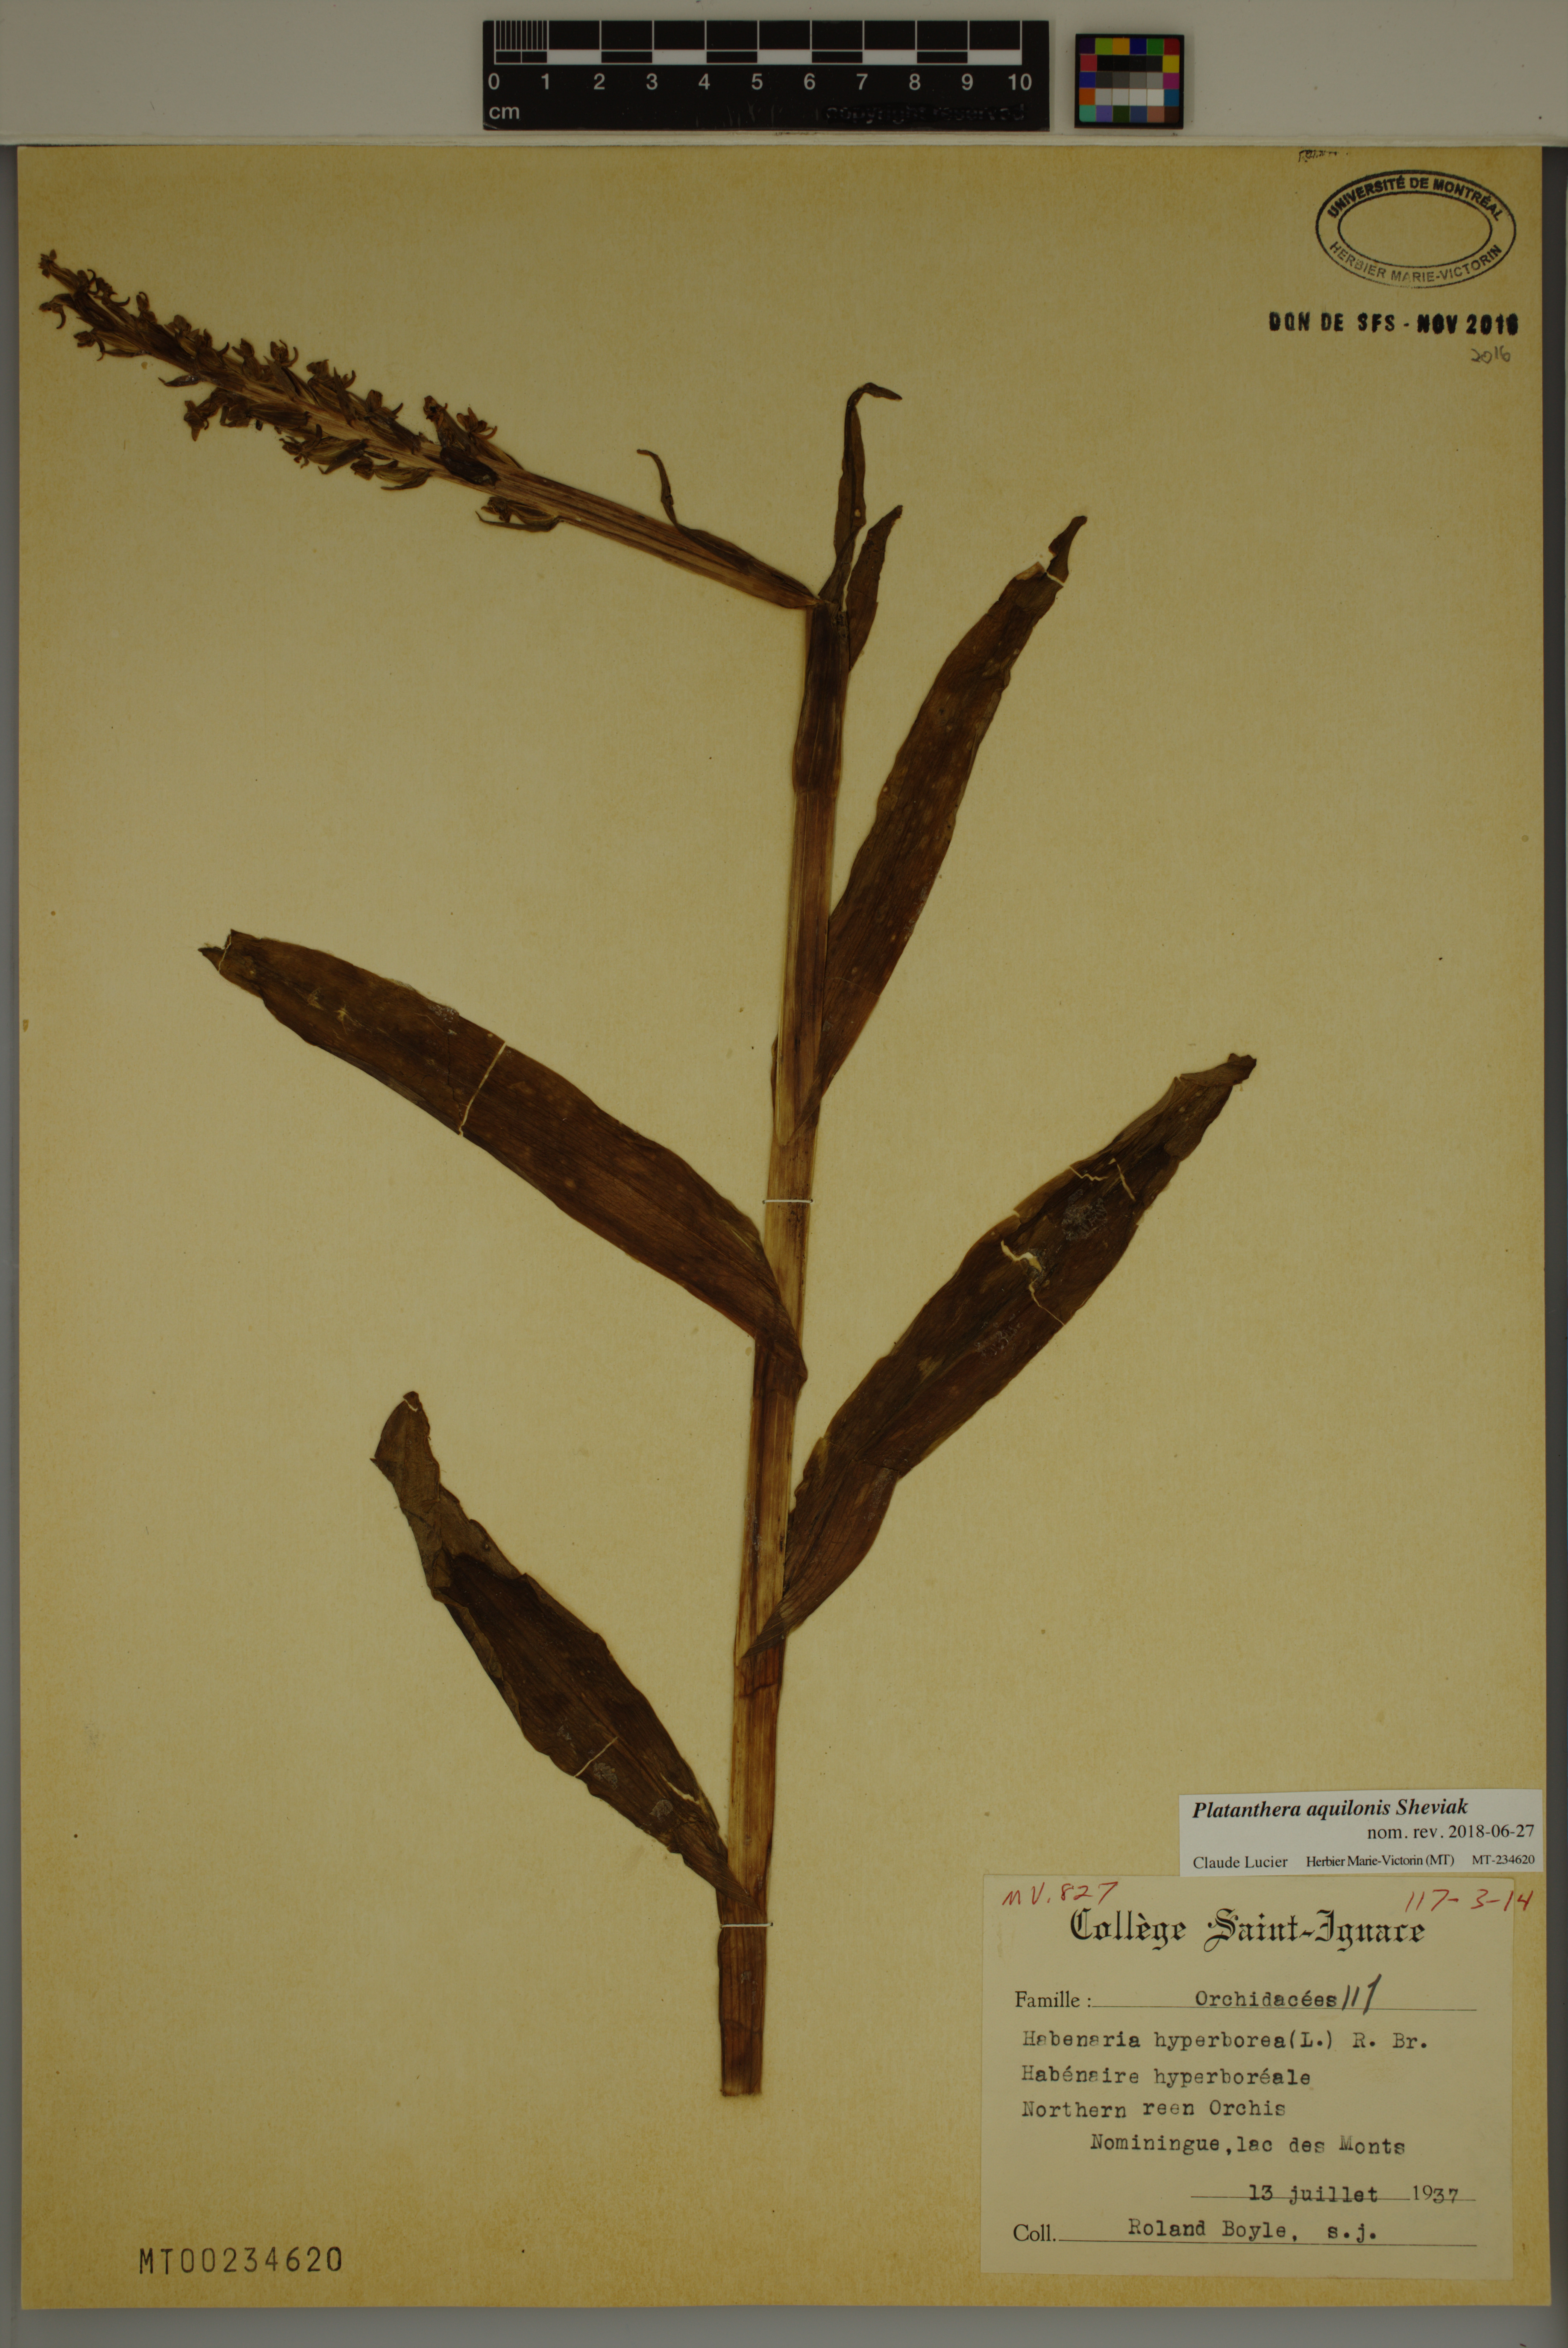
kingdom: Plantae
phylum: Tracheophyta
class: Liliopsida
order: Asparagales
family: Orchidaceae
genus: Platanthera
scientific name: Platanthera aquilonis
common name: Northern green orchid
